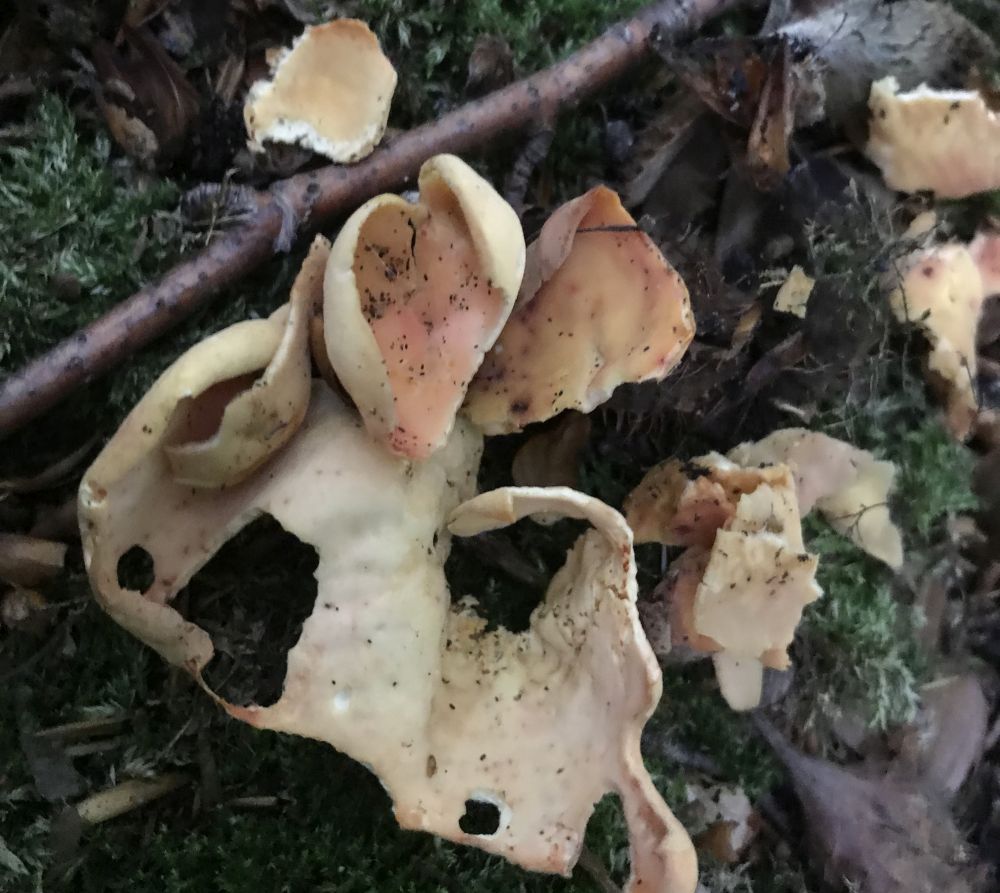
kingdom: Fungi
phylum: Ascomycota
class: Pezizomycetes
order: Pezizales
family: Otideaceae
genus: Otidea
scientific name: Otidea onotica
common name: æsel-ørebæger
